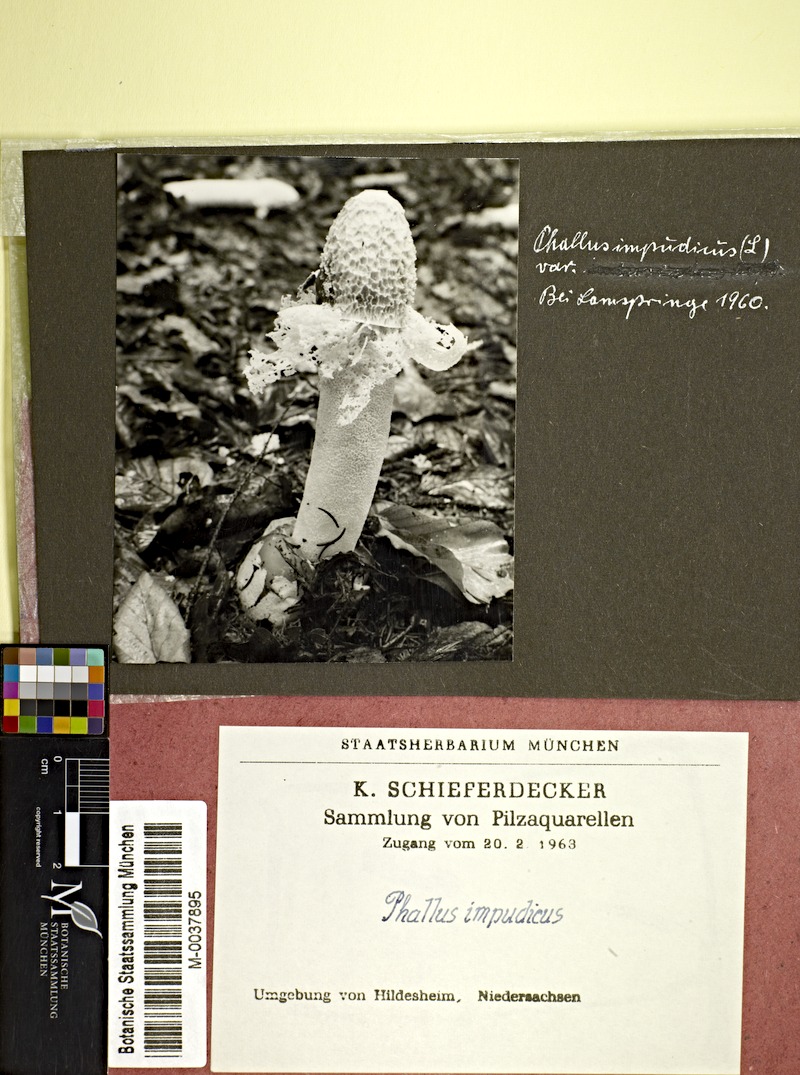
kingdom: Fungi
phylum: Basidiomycota
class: Agaricomycetes
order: Phallales
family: Phallaceae
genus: Phallus
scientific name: Phallus impudicus
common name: Common stinkhorn
